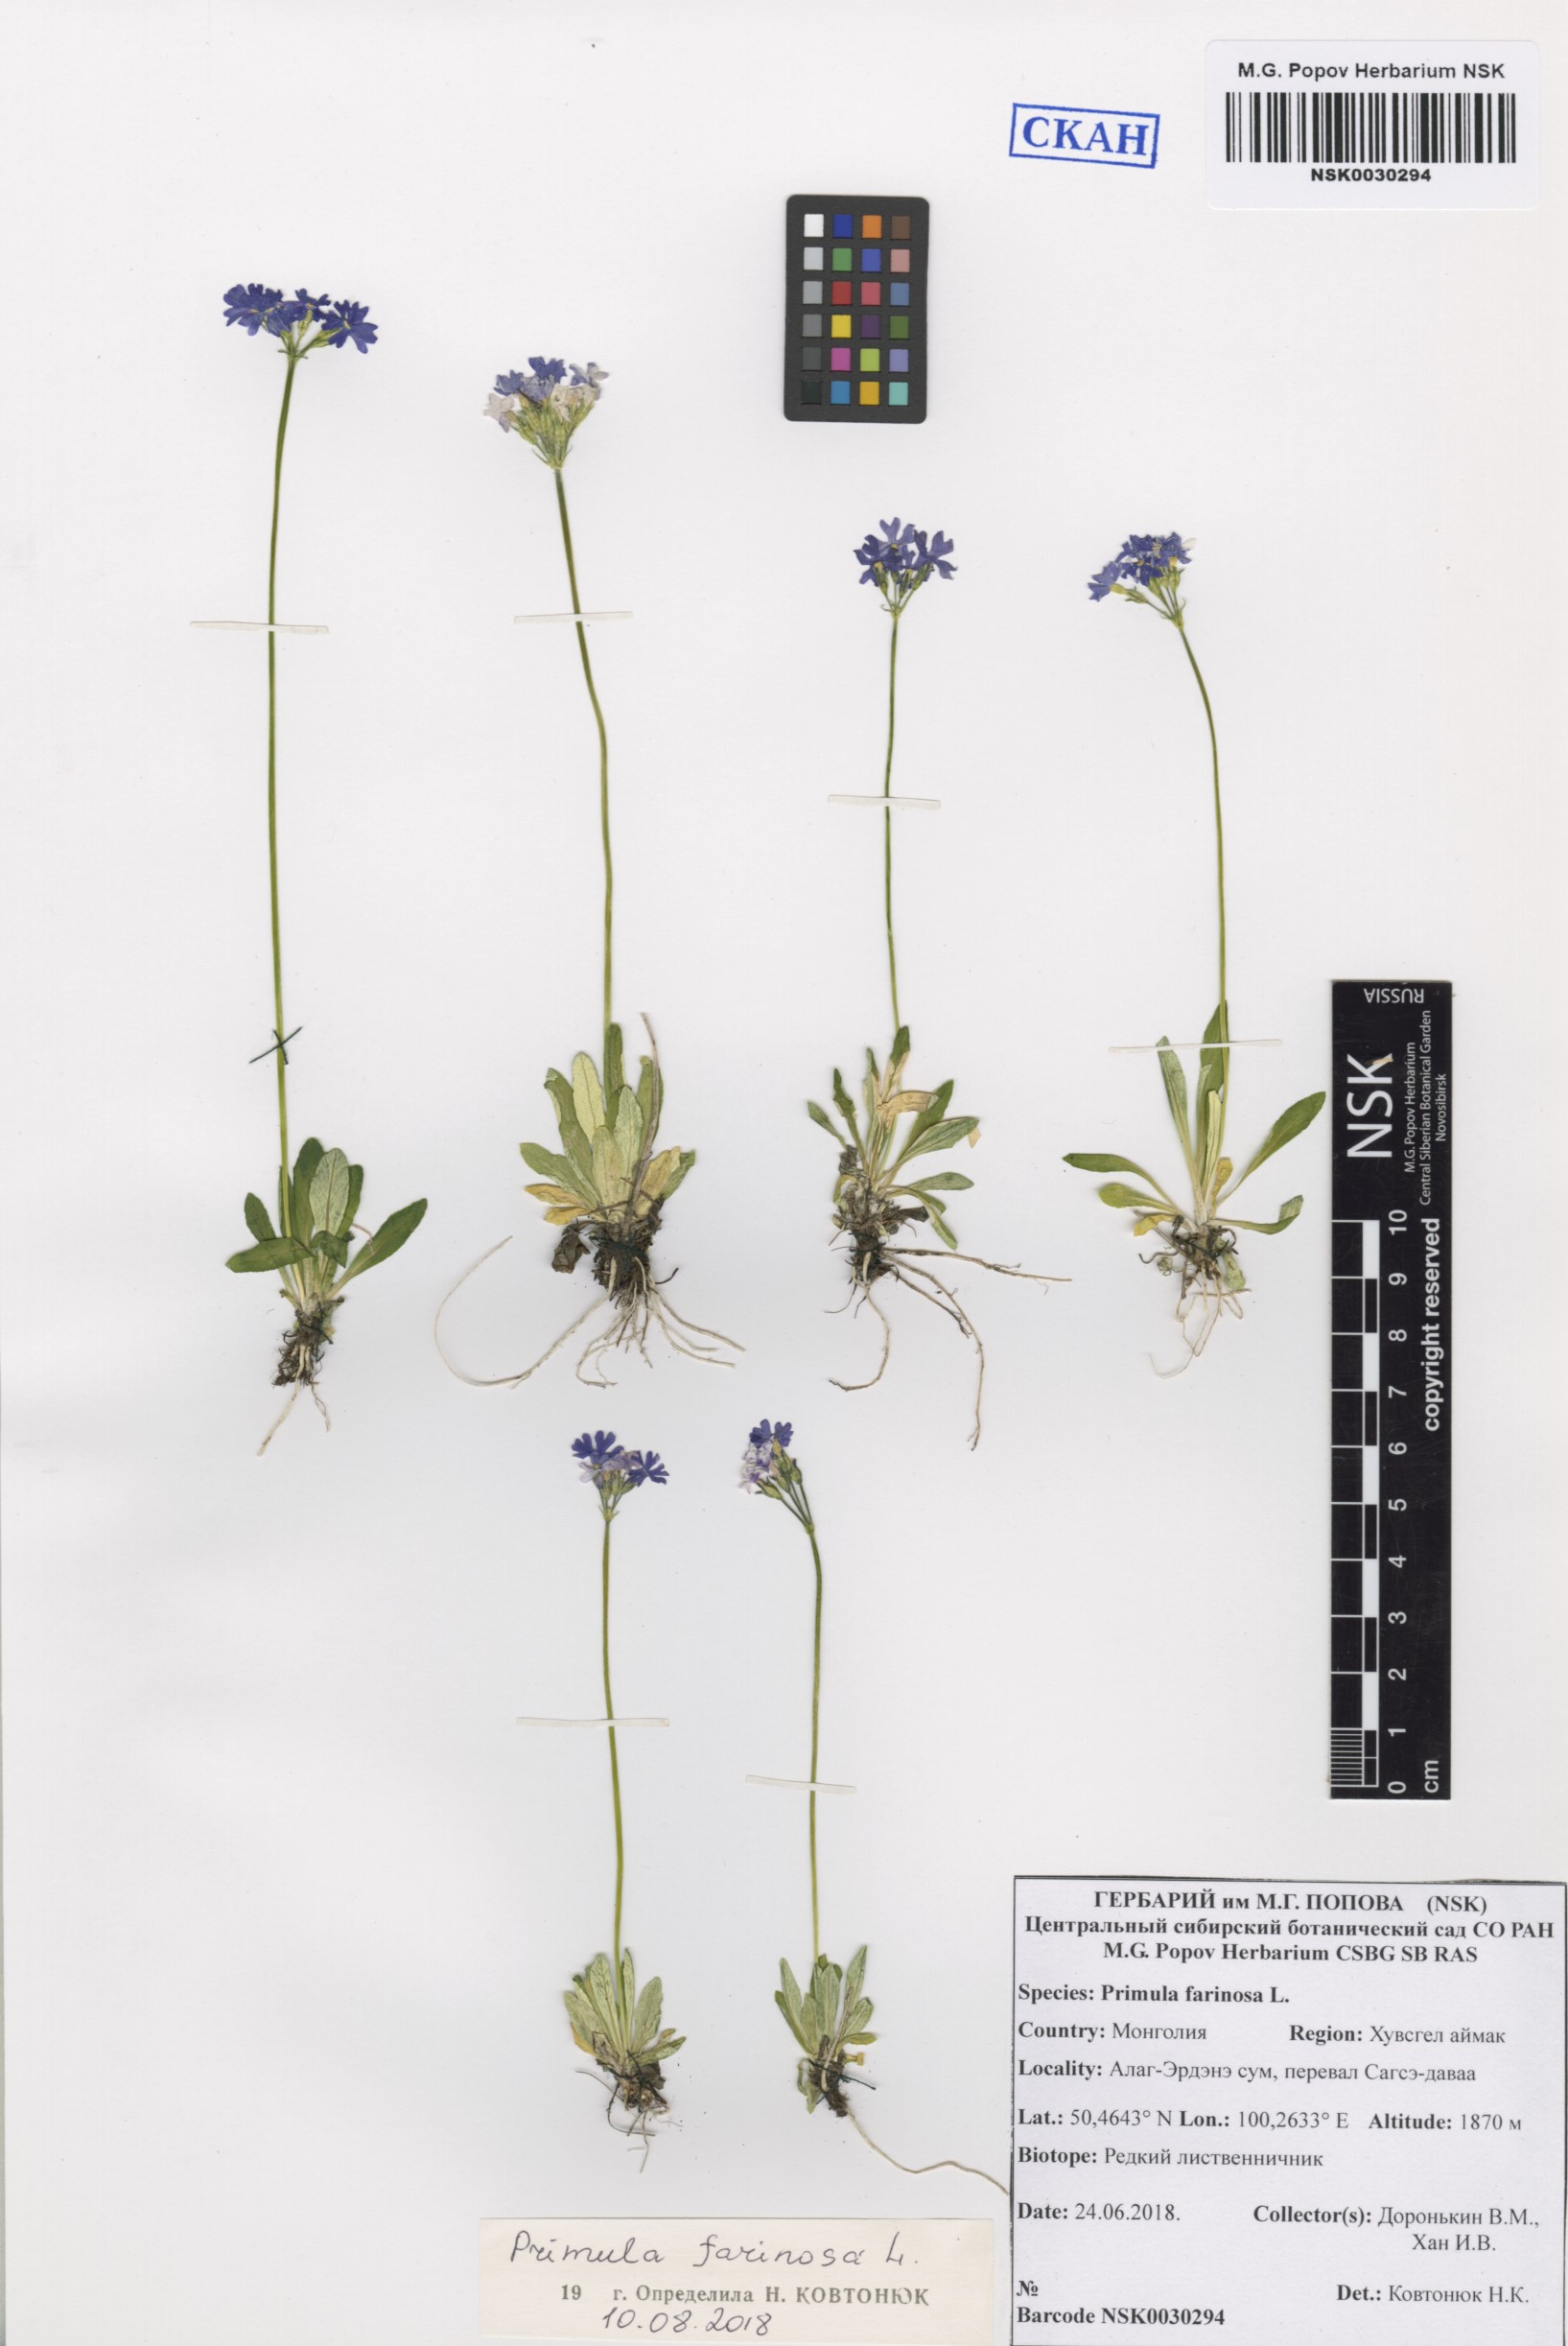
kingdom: Plantae
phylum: Tracheophyta
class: Magnoliopsida
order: Ericales
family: Primulaceae
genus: Primula
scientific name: Primula nutans
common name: Siberian primrose
